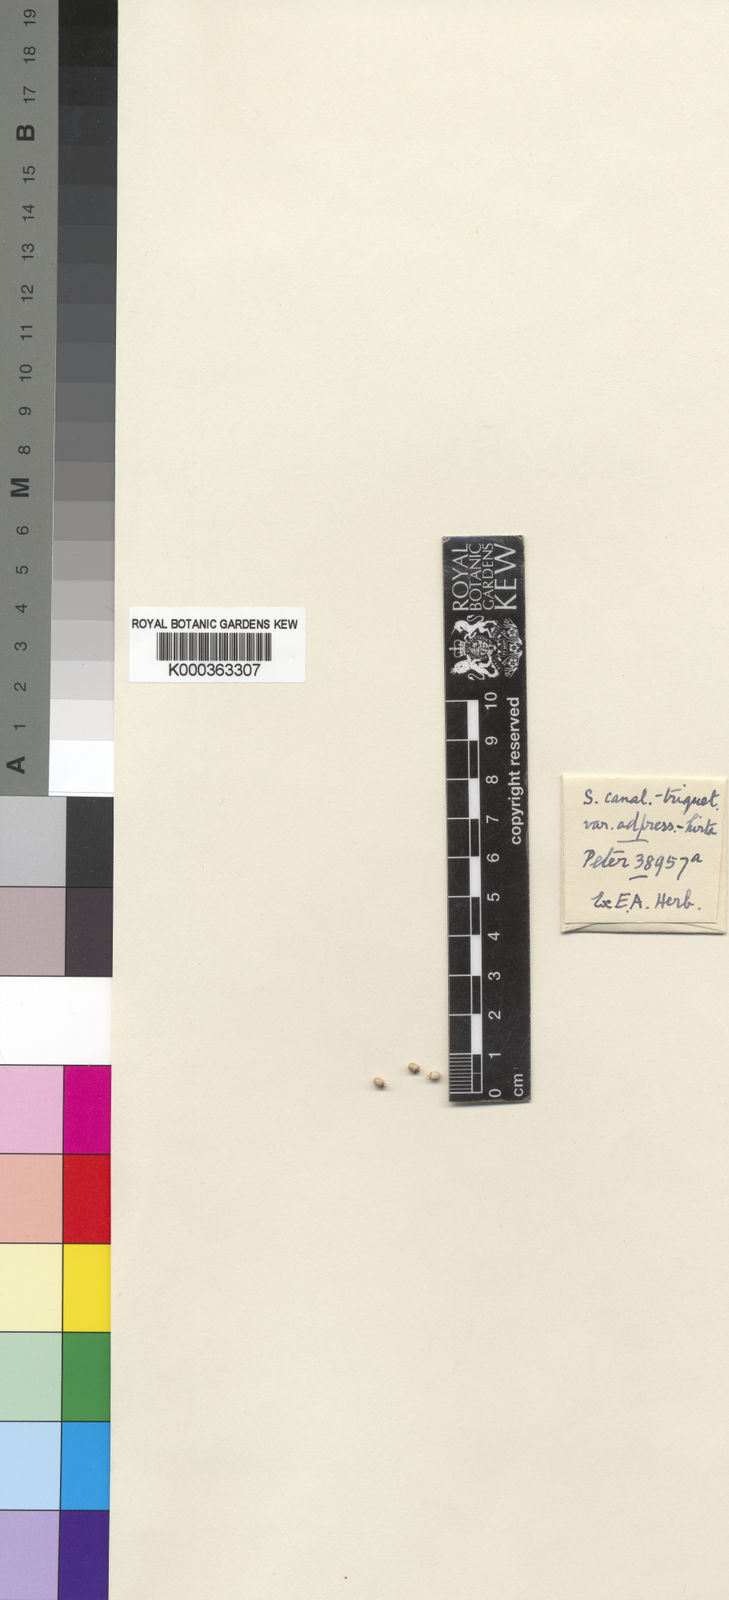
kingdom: Plantae
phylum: Tracheophyta
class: Liliopsida
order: Poales
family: Cyperaceae
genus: Scleria
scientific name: Scleria
